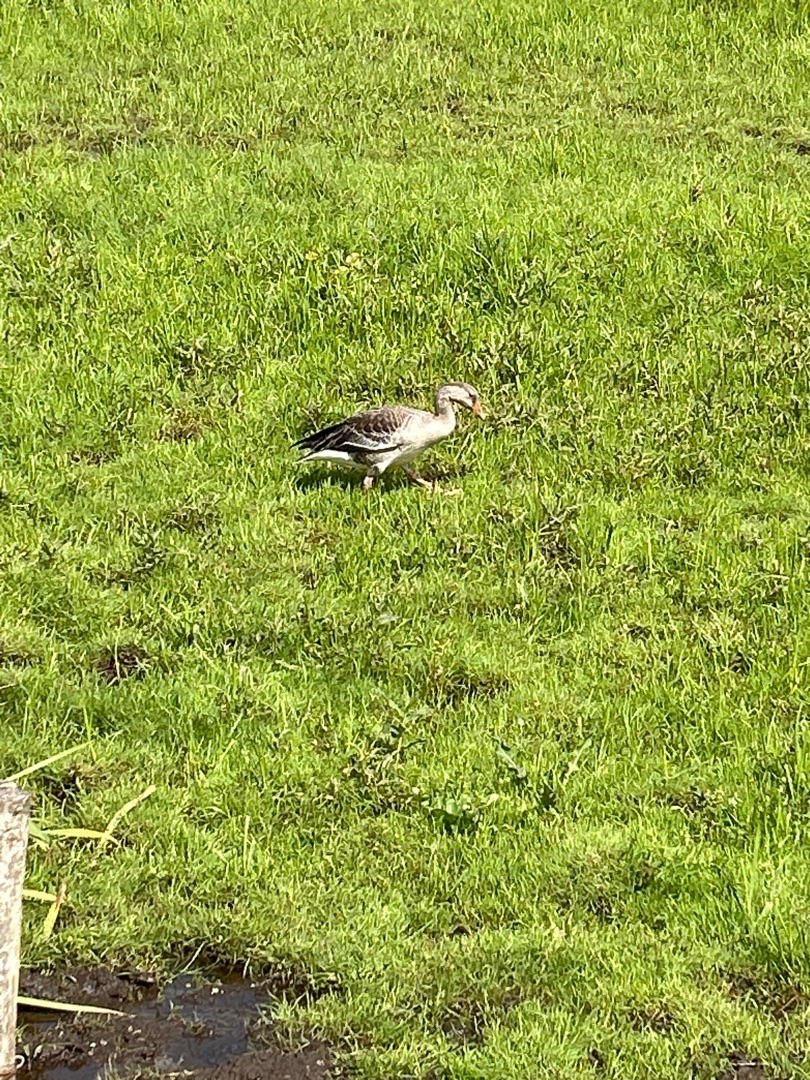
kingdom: Animalia
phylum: Chordata
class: Aves
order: Anseriformes
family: Anatidae
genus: Anser
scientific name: Anser anser
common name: Grågås
